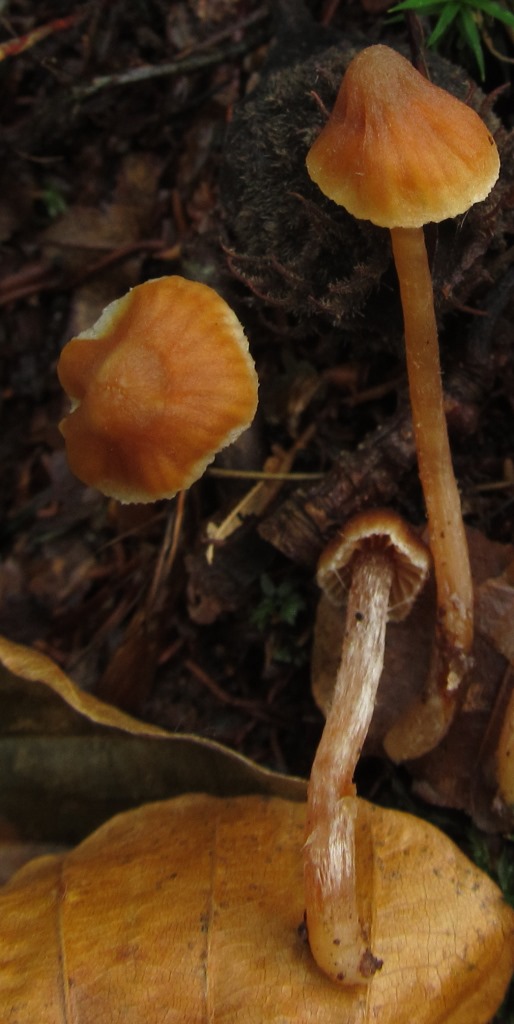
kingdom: Fungi
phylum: Basidiomycota
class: Agaricomycetes
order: Agaricales
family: Cortinariaceae
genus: Cortinarius
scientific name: Cortinarius acutus
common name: spids slørhat
